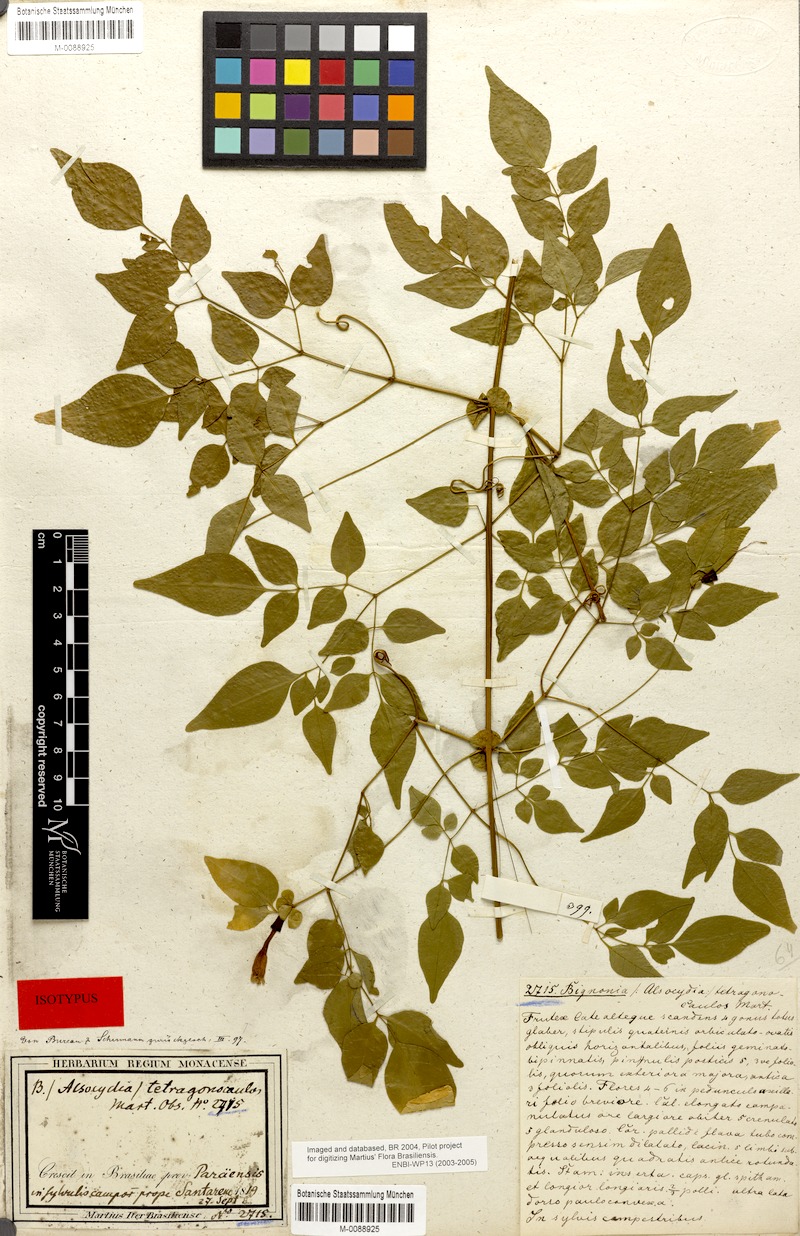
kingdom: Plantae
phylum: Tracheophyta
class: Magnoliopsida
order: Lamiales
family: Bignoniaceae
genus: Pleonotoma
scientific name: Pleonotoma jasminifolia
